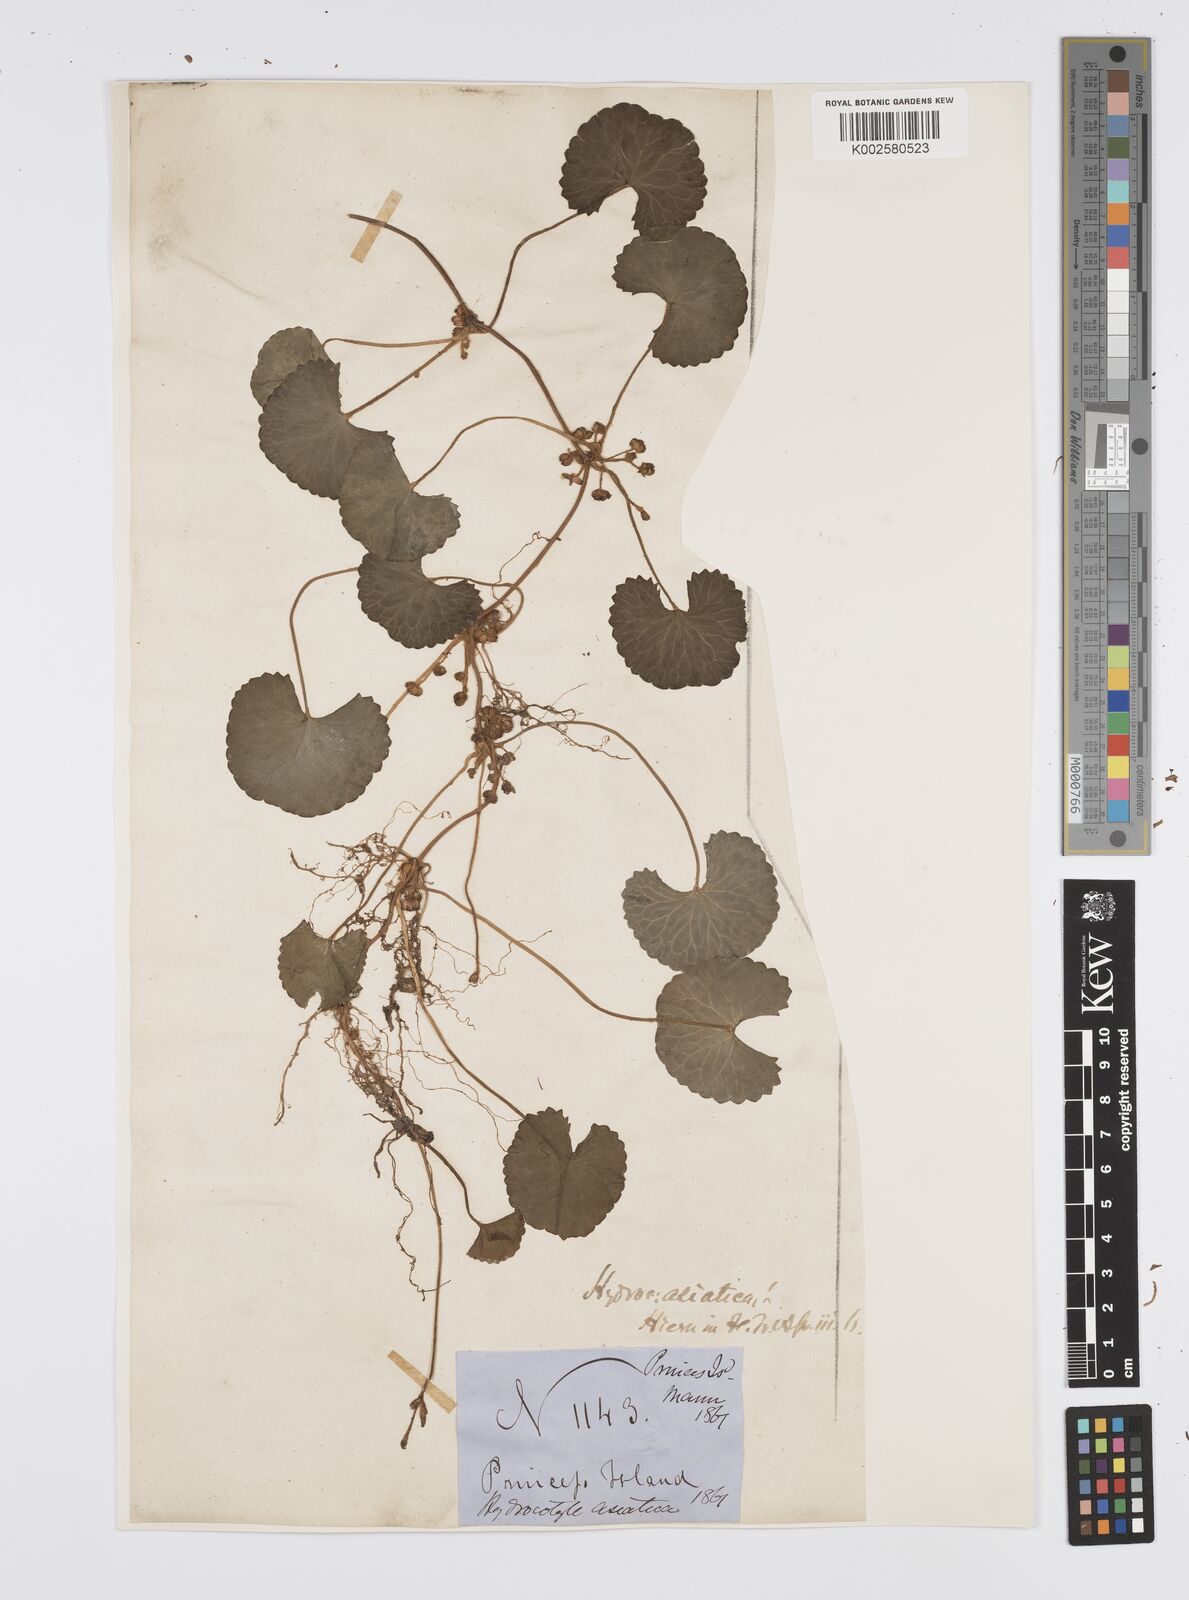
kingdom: Plantae
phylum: Tracheophyta
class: Magnoliopsida
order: Apiales
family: Apiaceae
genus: Centella
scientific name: Centella asiatica
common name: Spadeleaf
